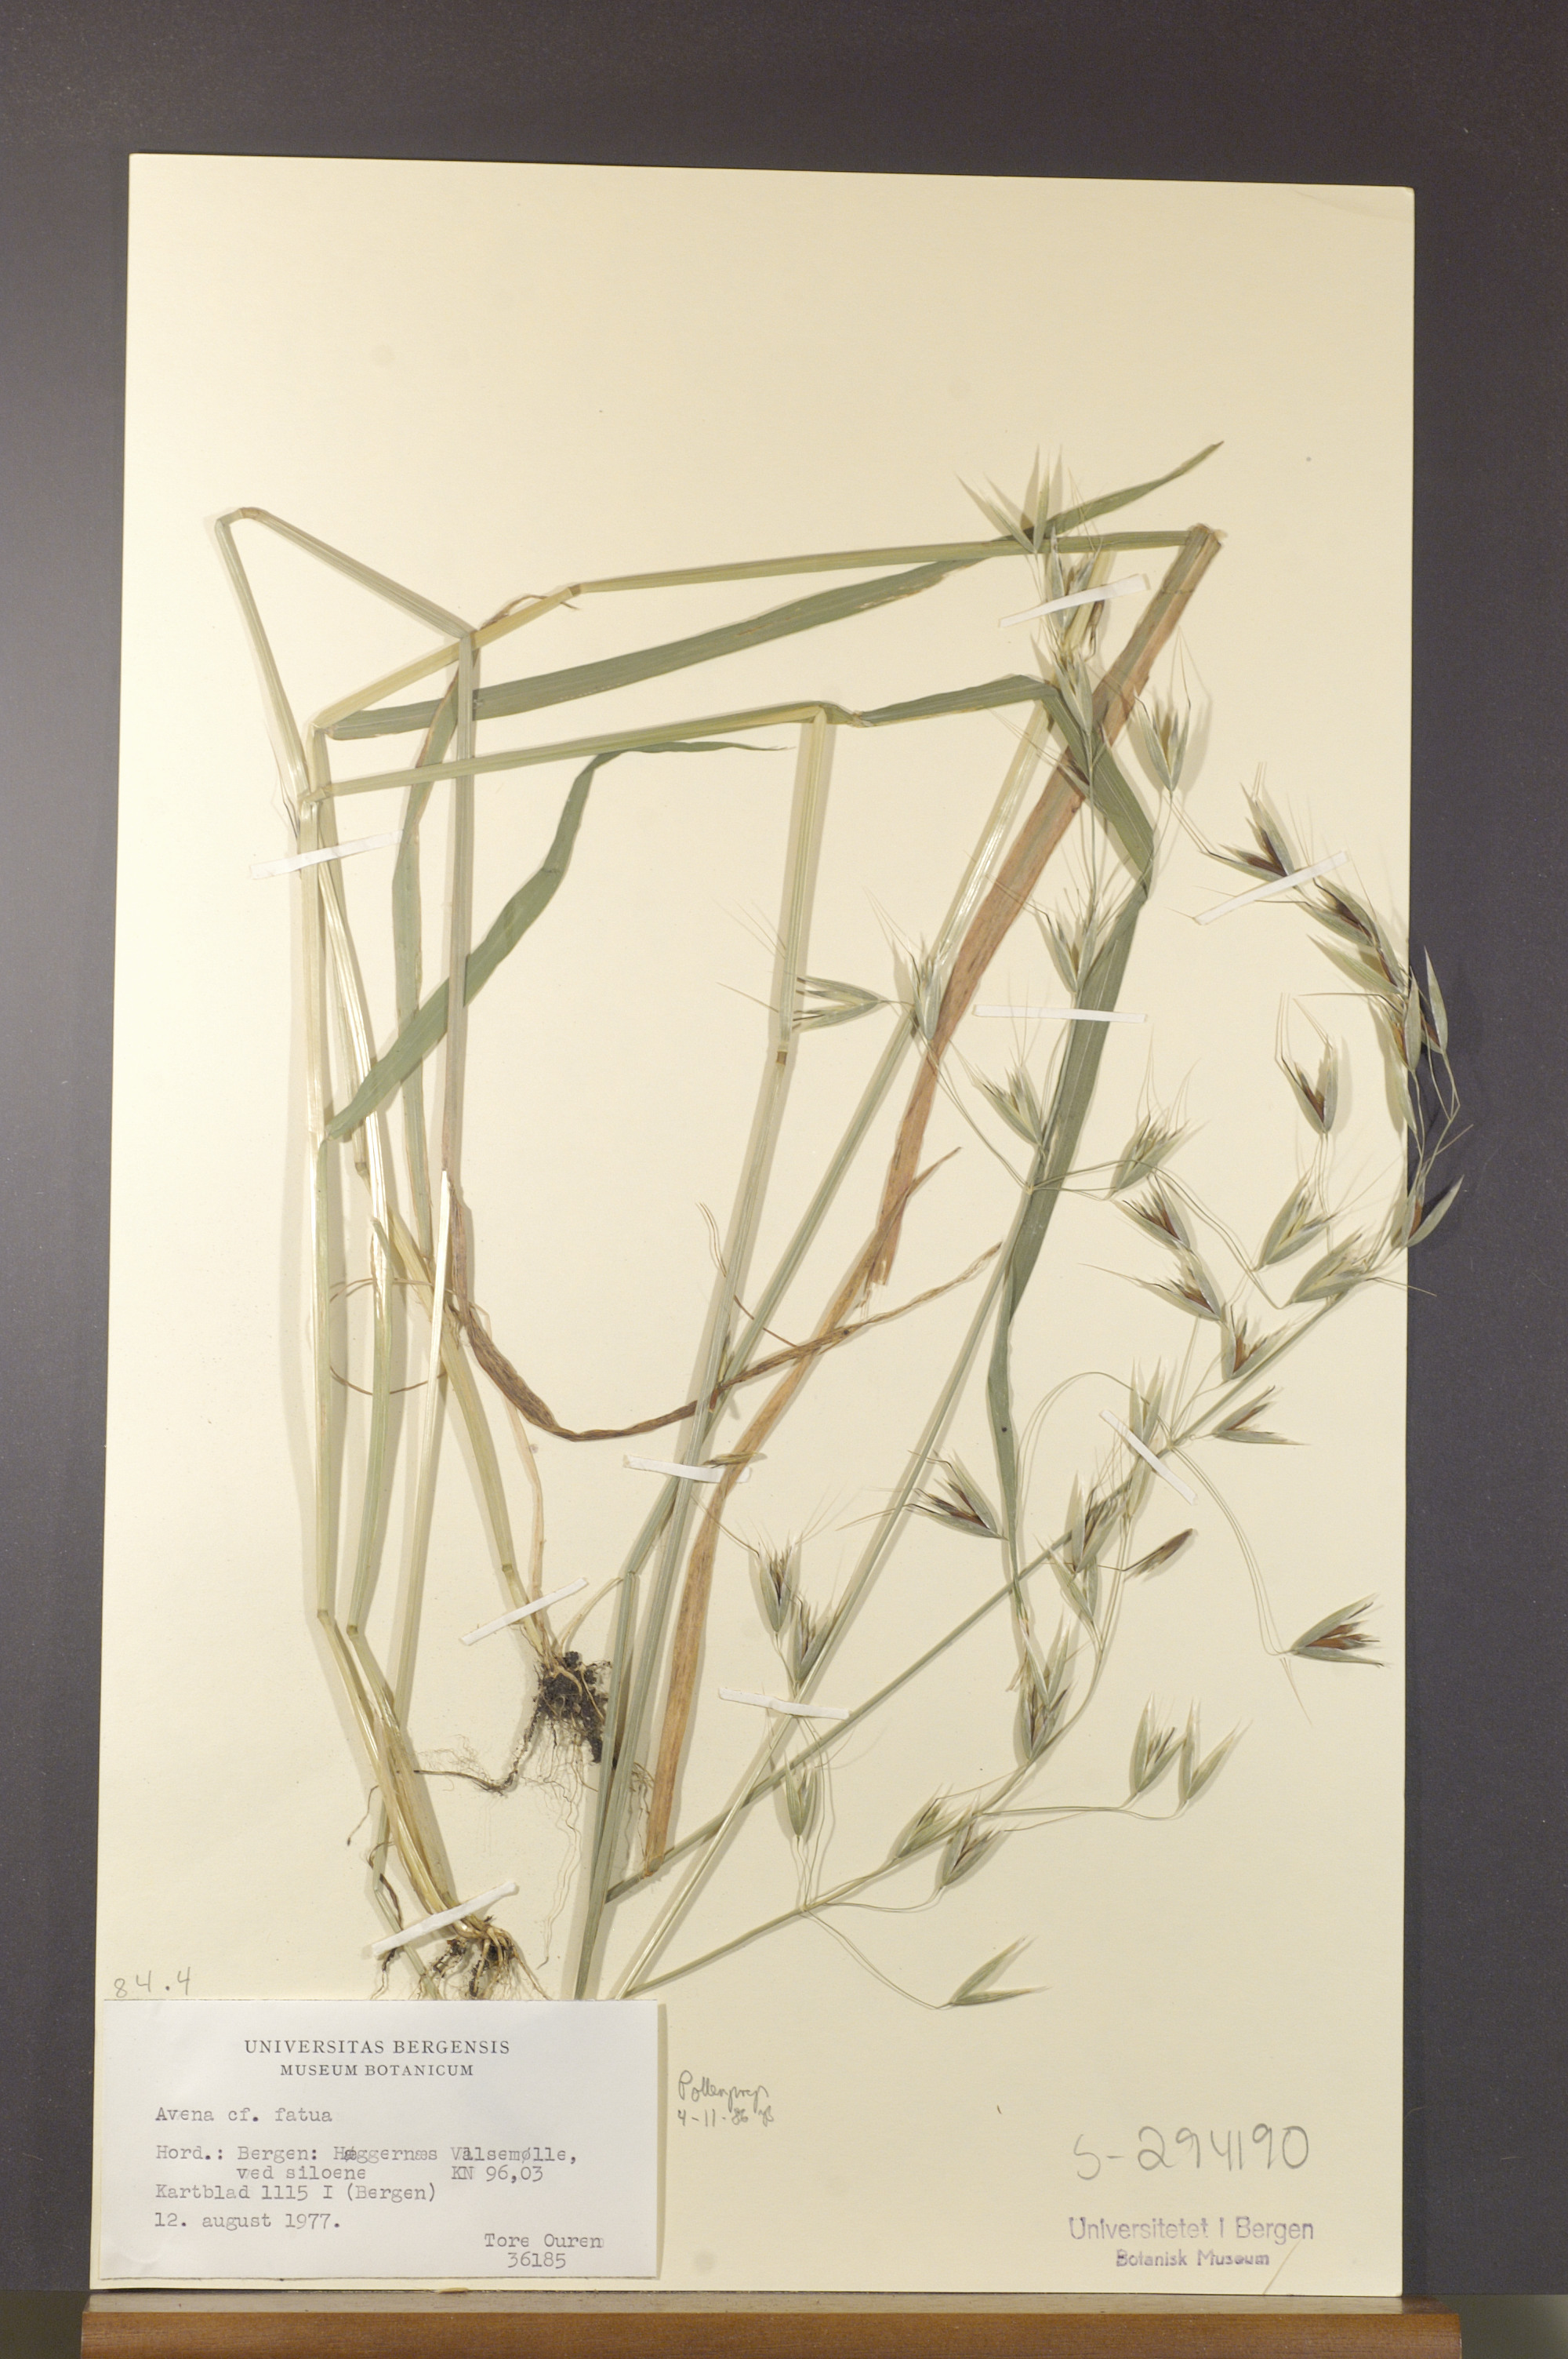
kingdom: Plantae
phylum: Tracheophyta
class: Liliopsida
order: Poales
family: Poaceae
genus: Avena
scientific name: Avena fatua
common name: Wild oat
